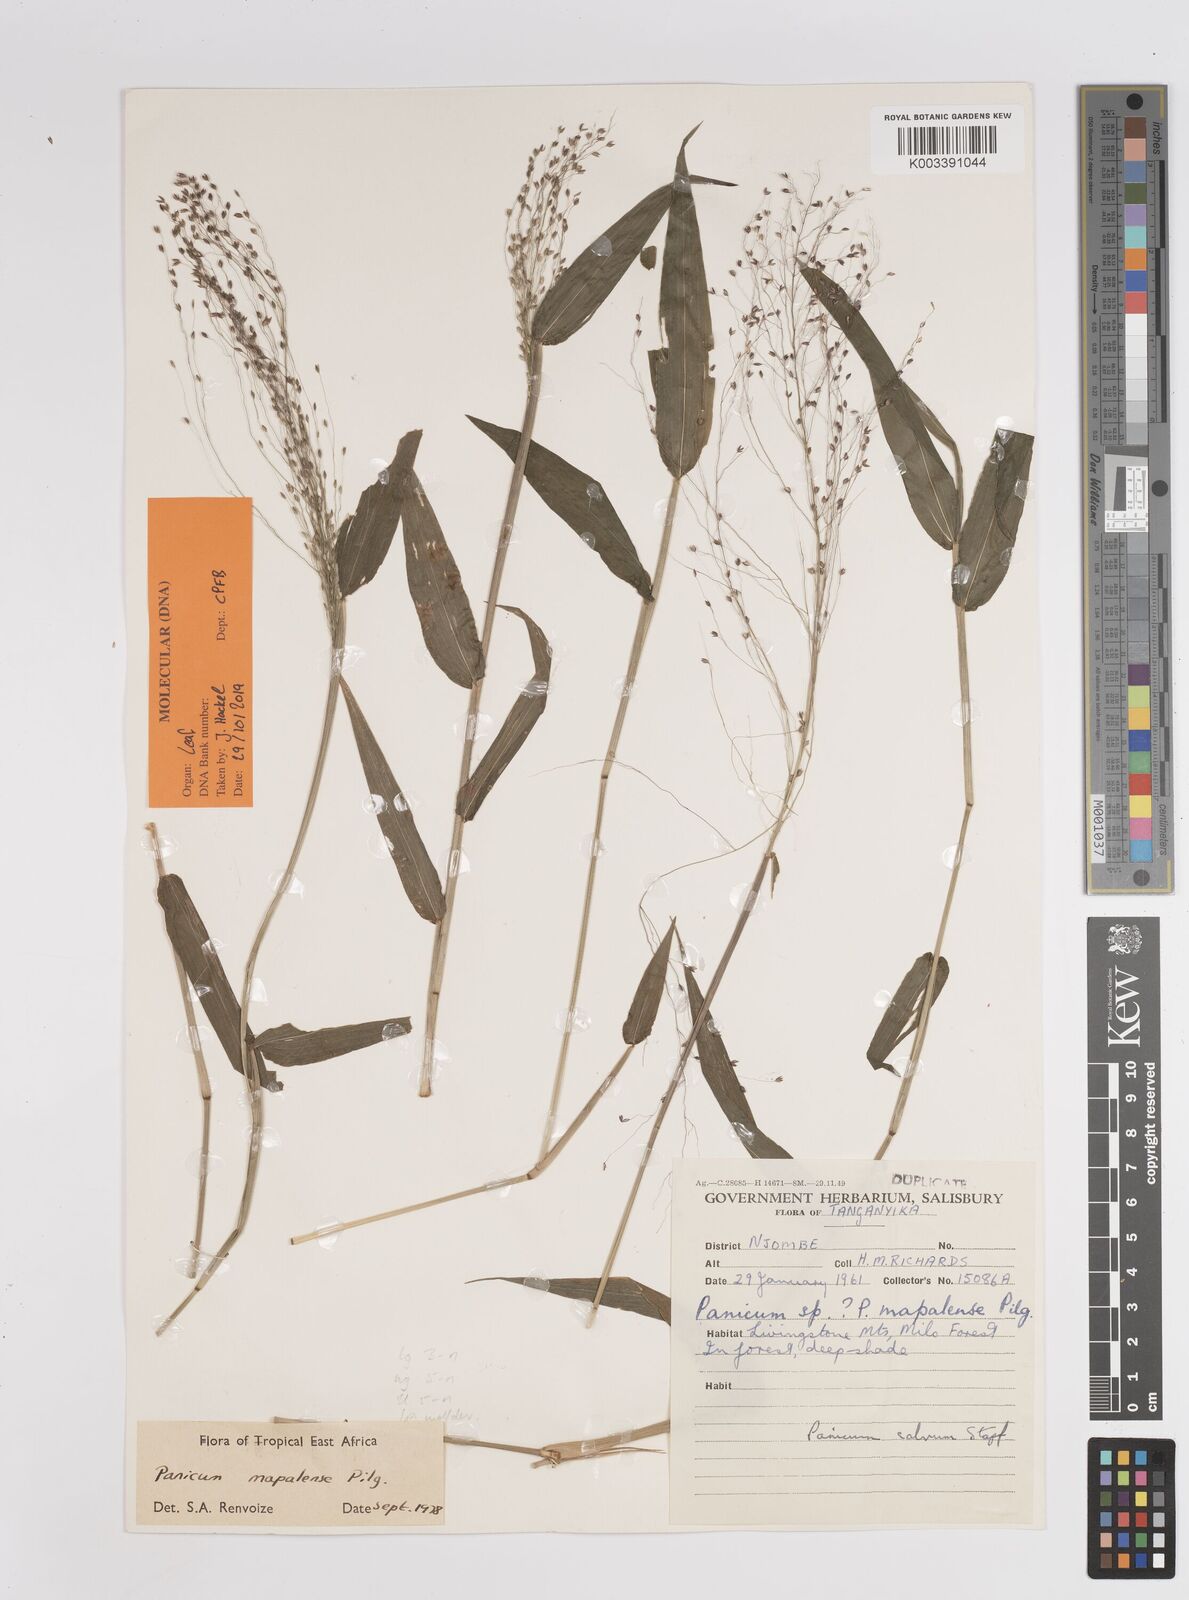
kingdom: Plantae
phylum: Tracheophyta
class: Liliopsida
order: Poales
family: Poaceae
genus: Panicum
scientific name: Panicum mapalense
